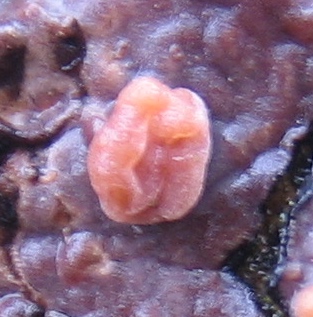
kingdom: Fungi
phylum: Basidiomycota
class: Agaricomycetes
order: Russulales
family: Peniophoraceae
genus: Peniophora
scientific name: Peniophora quercina
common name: ege-voksskind
